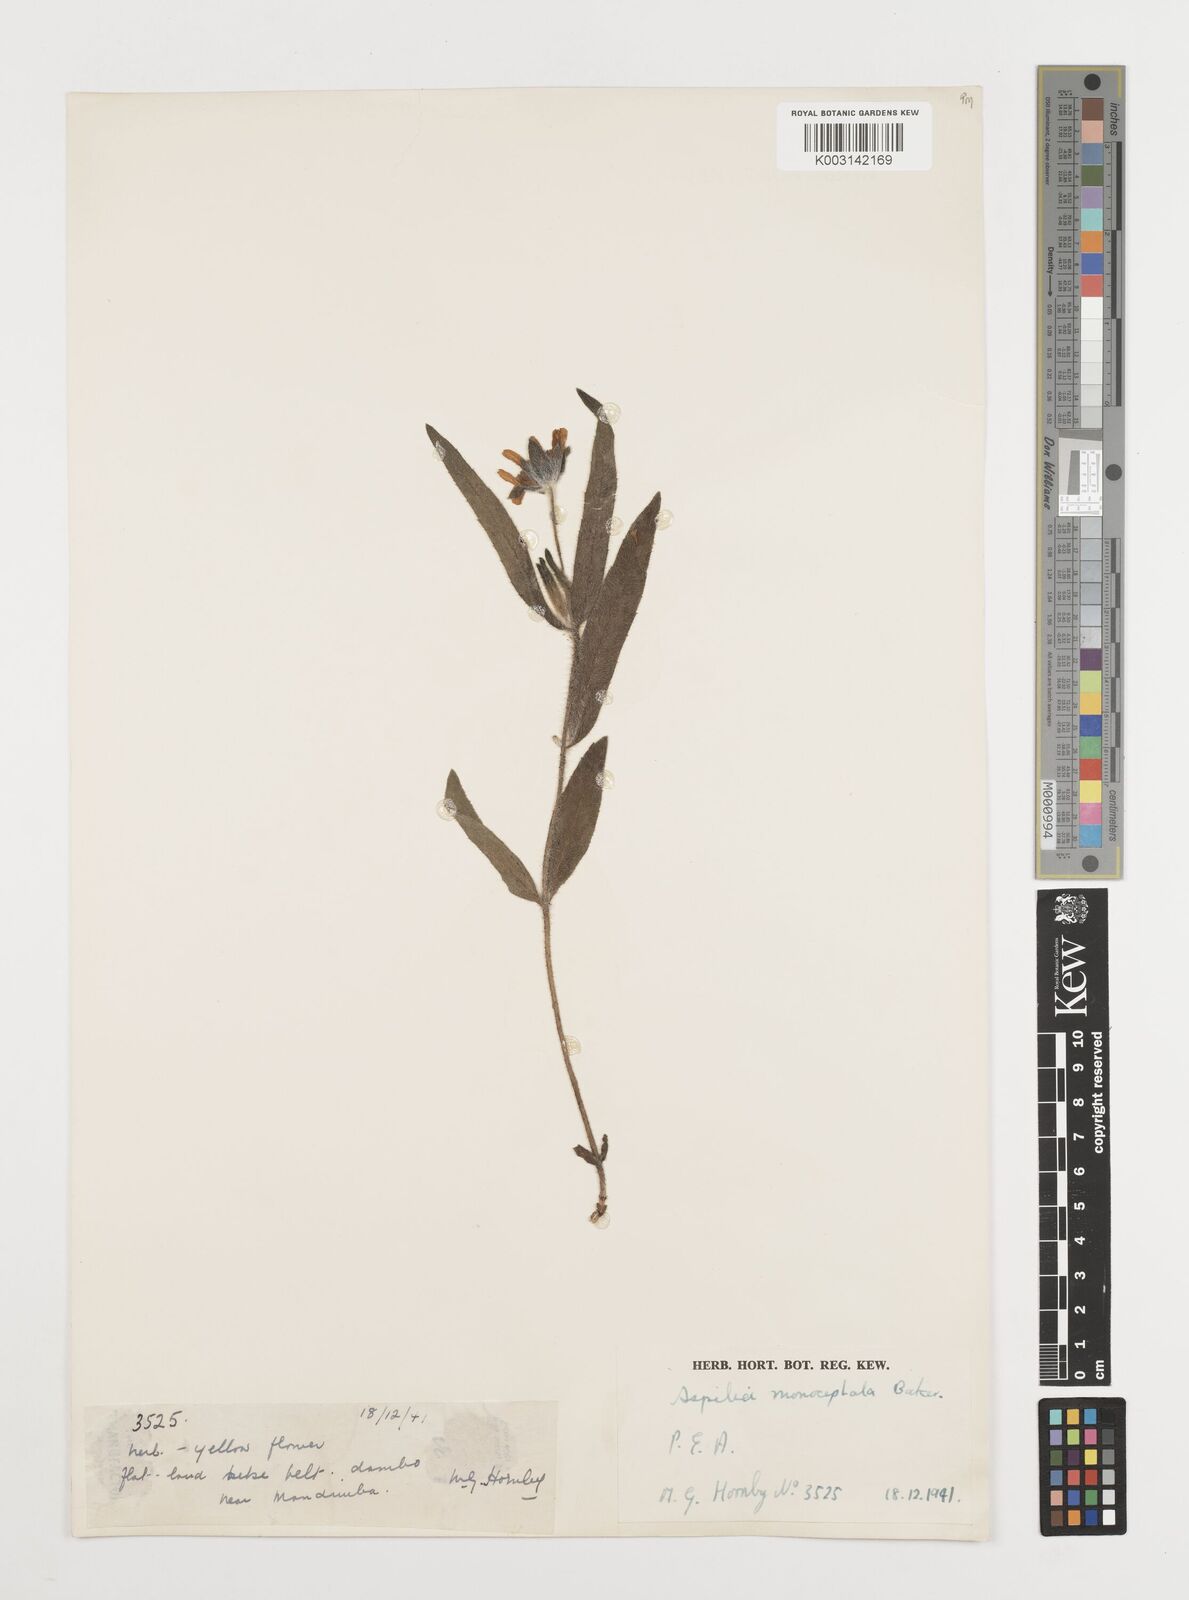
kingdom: Plantae
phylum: Tracheophyta
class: Magnoliopsida
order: Asterales
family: Asteraceae
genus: Aspilia
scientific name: Aspilia natalensis
